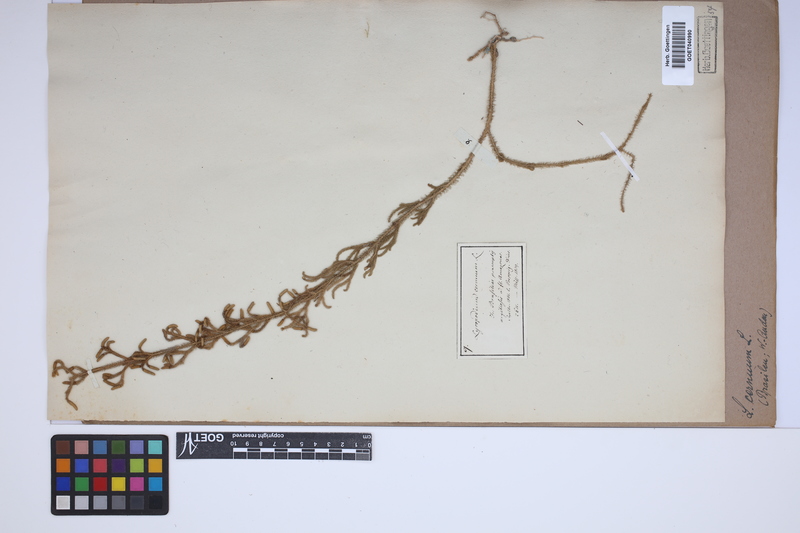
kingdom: Plantae
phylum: Tracheophyta
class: Lycopodiopsida
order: Lycopodiales
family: Lycopodiaceae
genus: Palhinhaea
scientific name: Palhinhaea cernua
